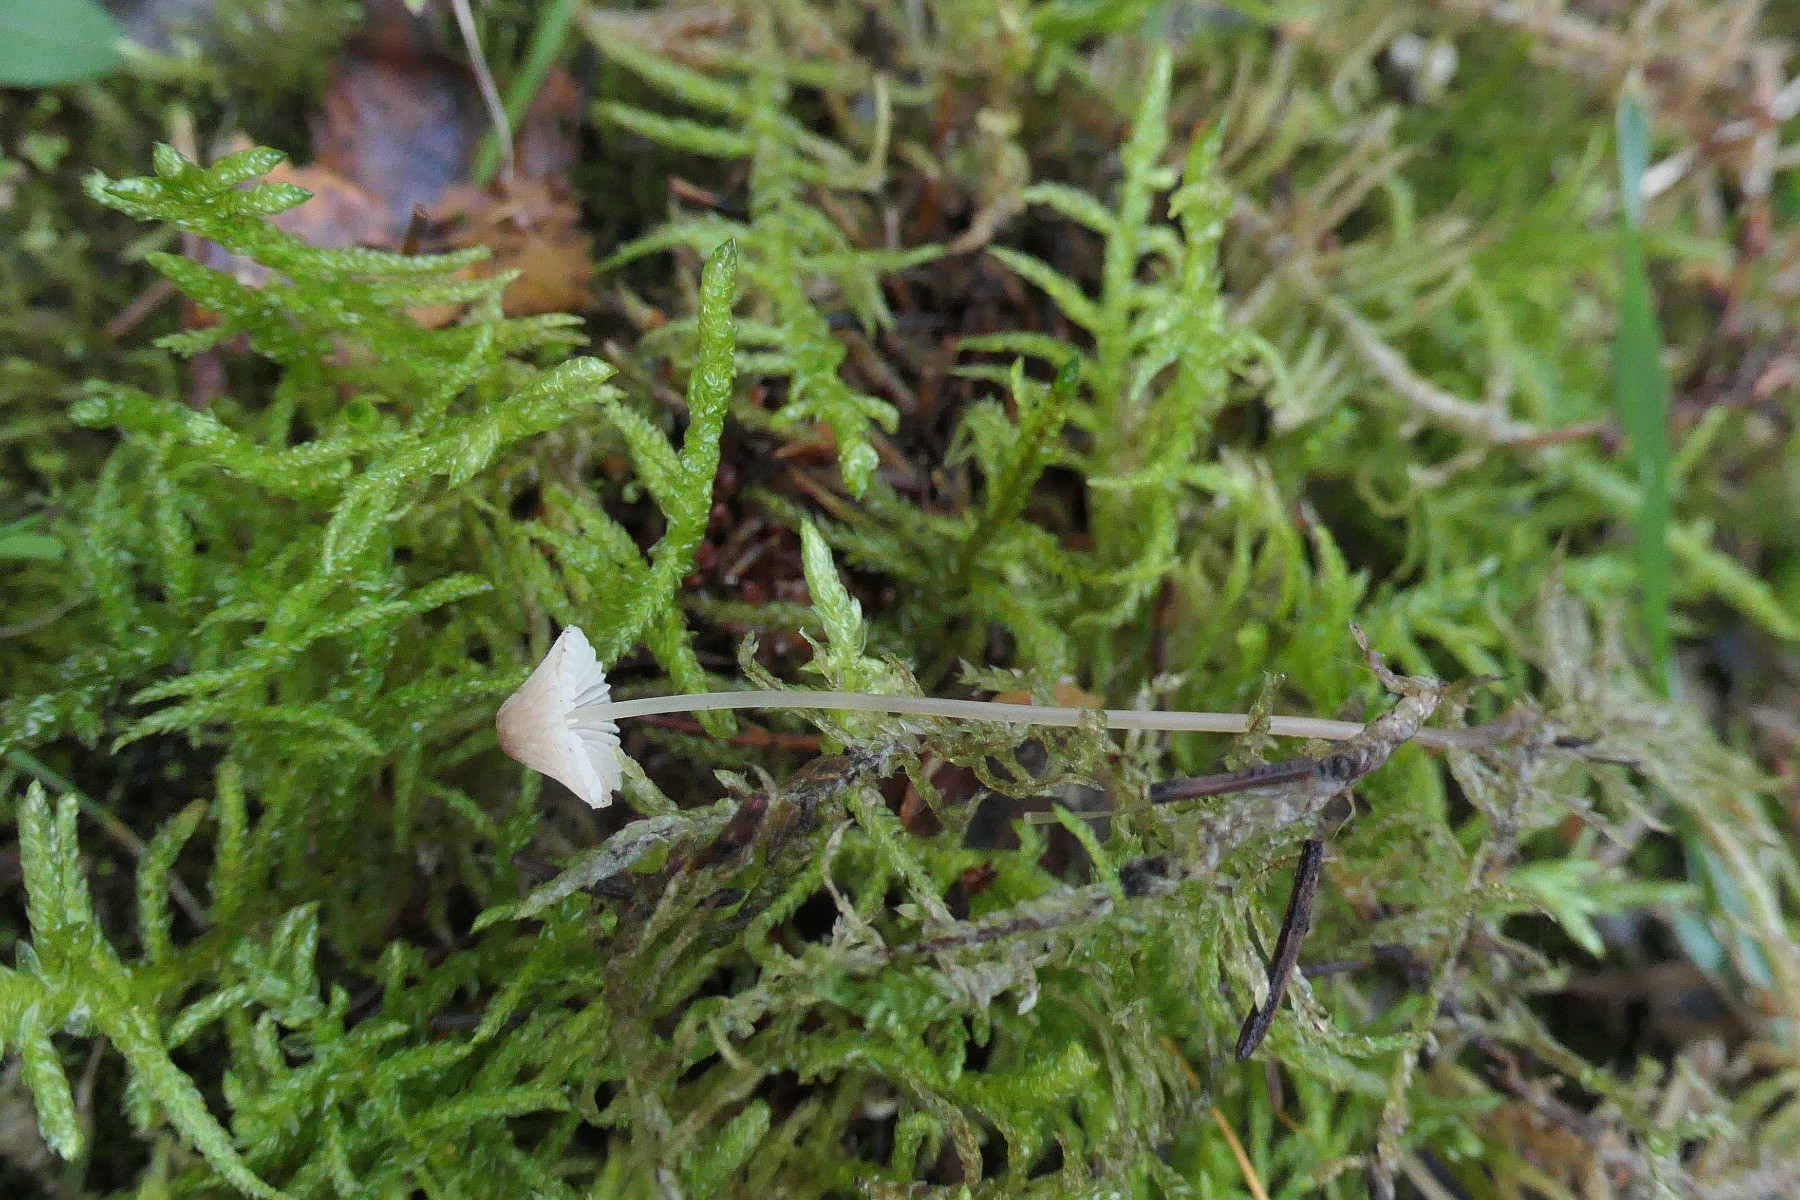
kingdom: Fungi
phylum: Basidiomycota
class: Agaricomycetes
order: Agaricales
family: Mycenaceae
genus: Mycena
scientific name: Mycena metata
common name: rødlig huesvamp
